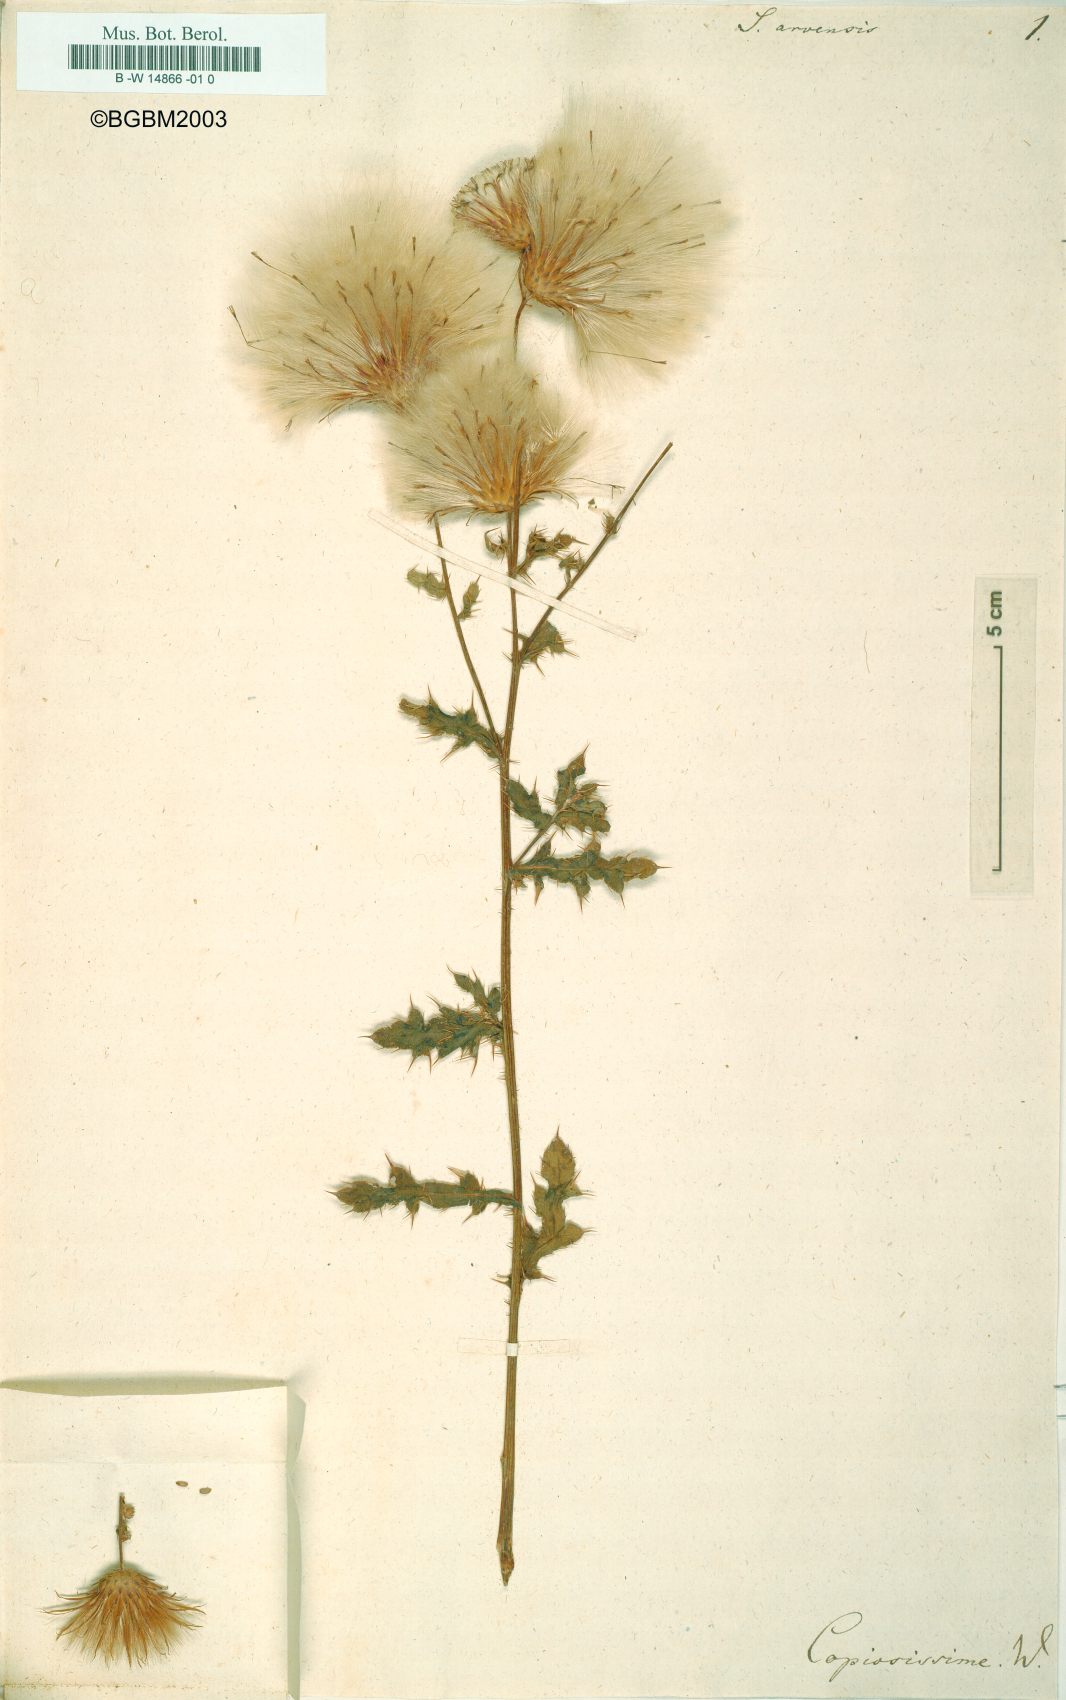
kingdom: Plantae
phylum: Tracheophyta
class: Magnoliopsida
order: Asterales
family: Asteraceae
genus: Cirsium
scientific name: Cirsium arvense
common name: Creeping thistle
